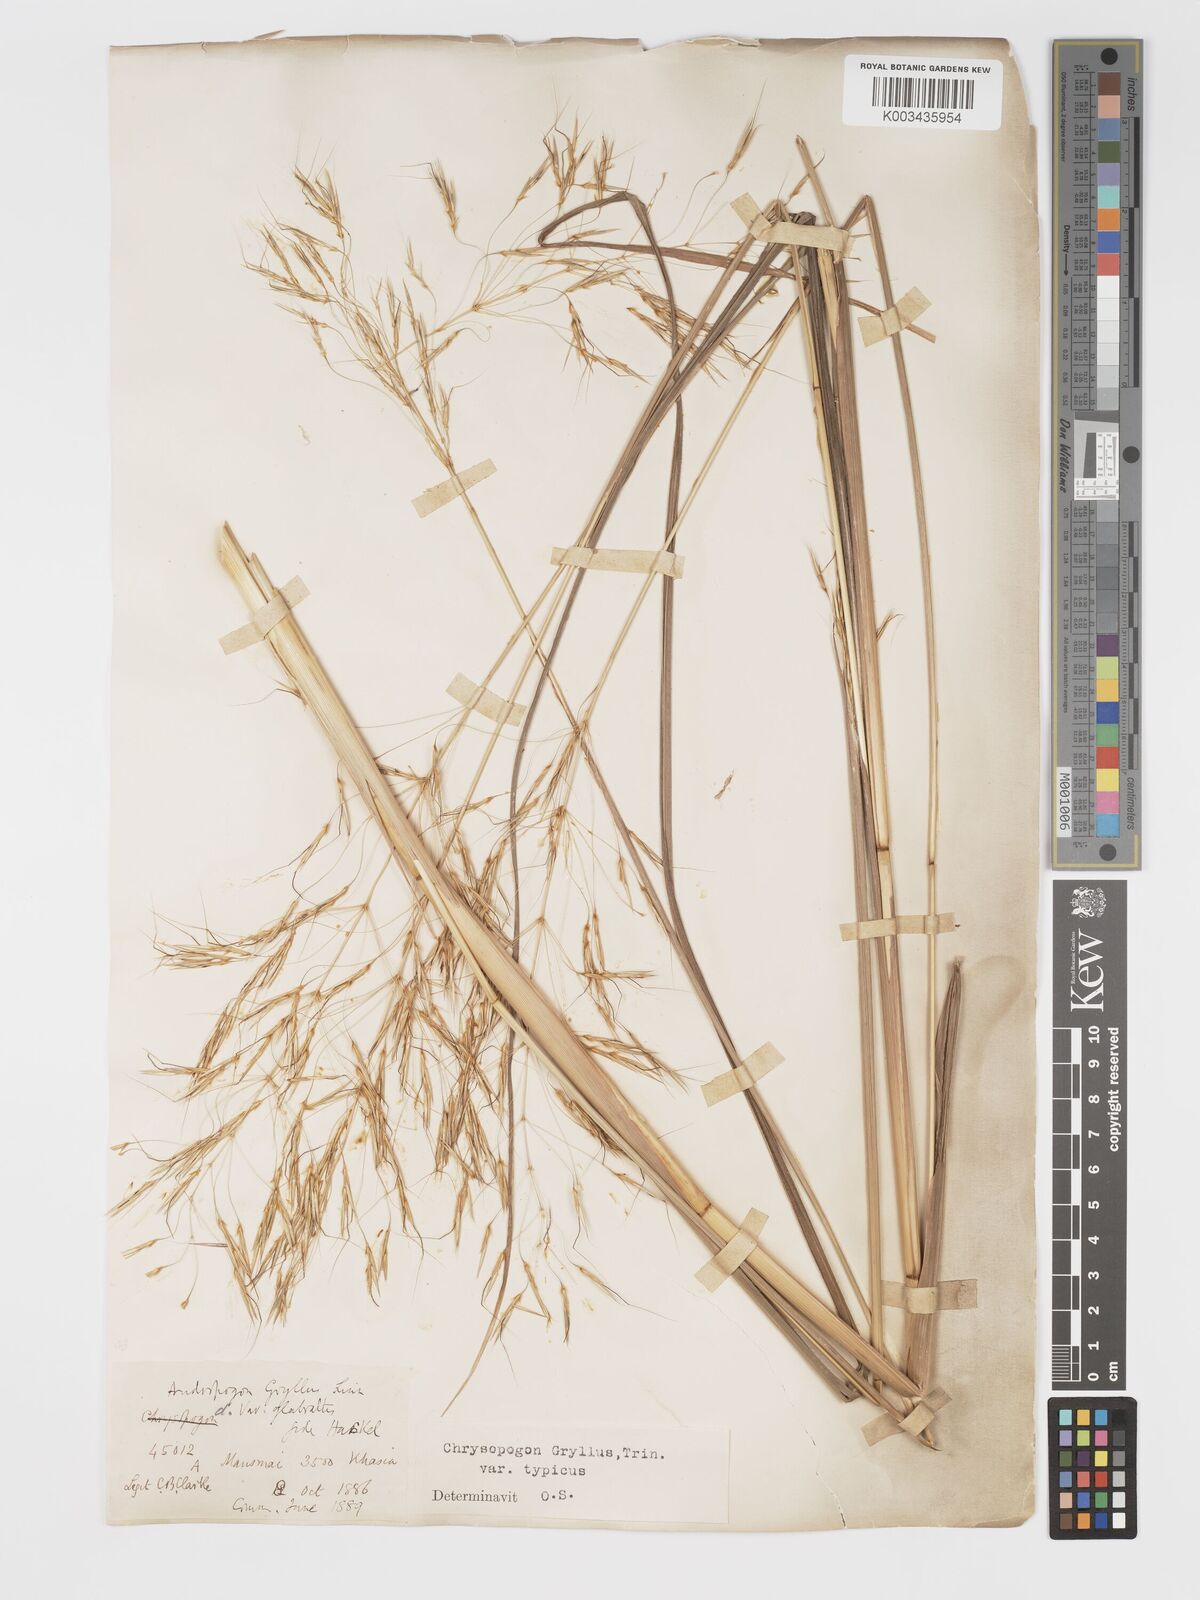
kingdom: Plantae
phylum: Tracheophyta
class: Liliopsida
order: Poales
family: Poaceae
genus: Chrysopogon
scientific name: Chrysopogon gryllus
